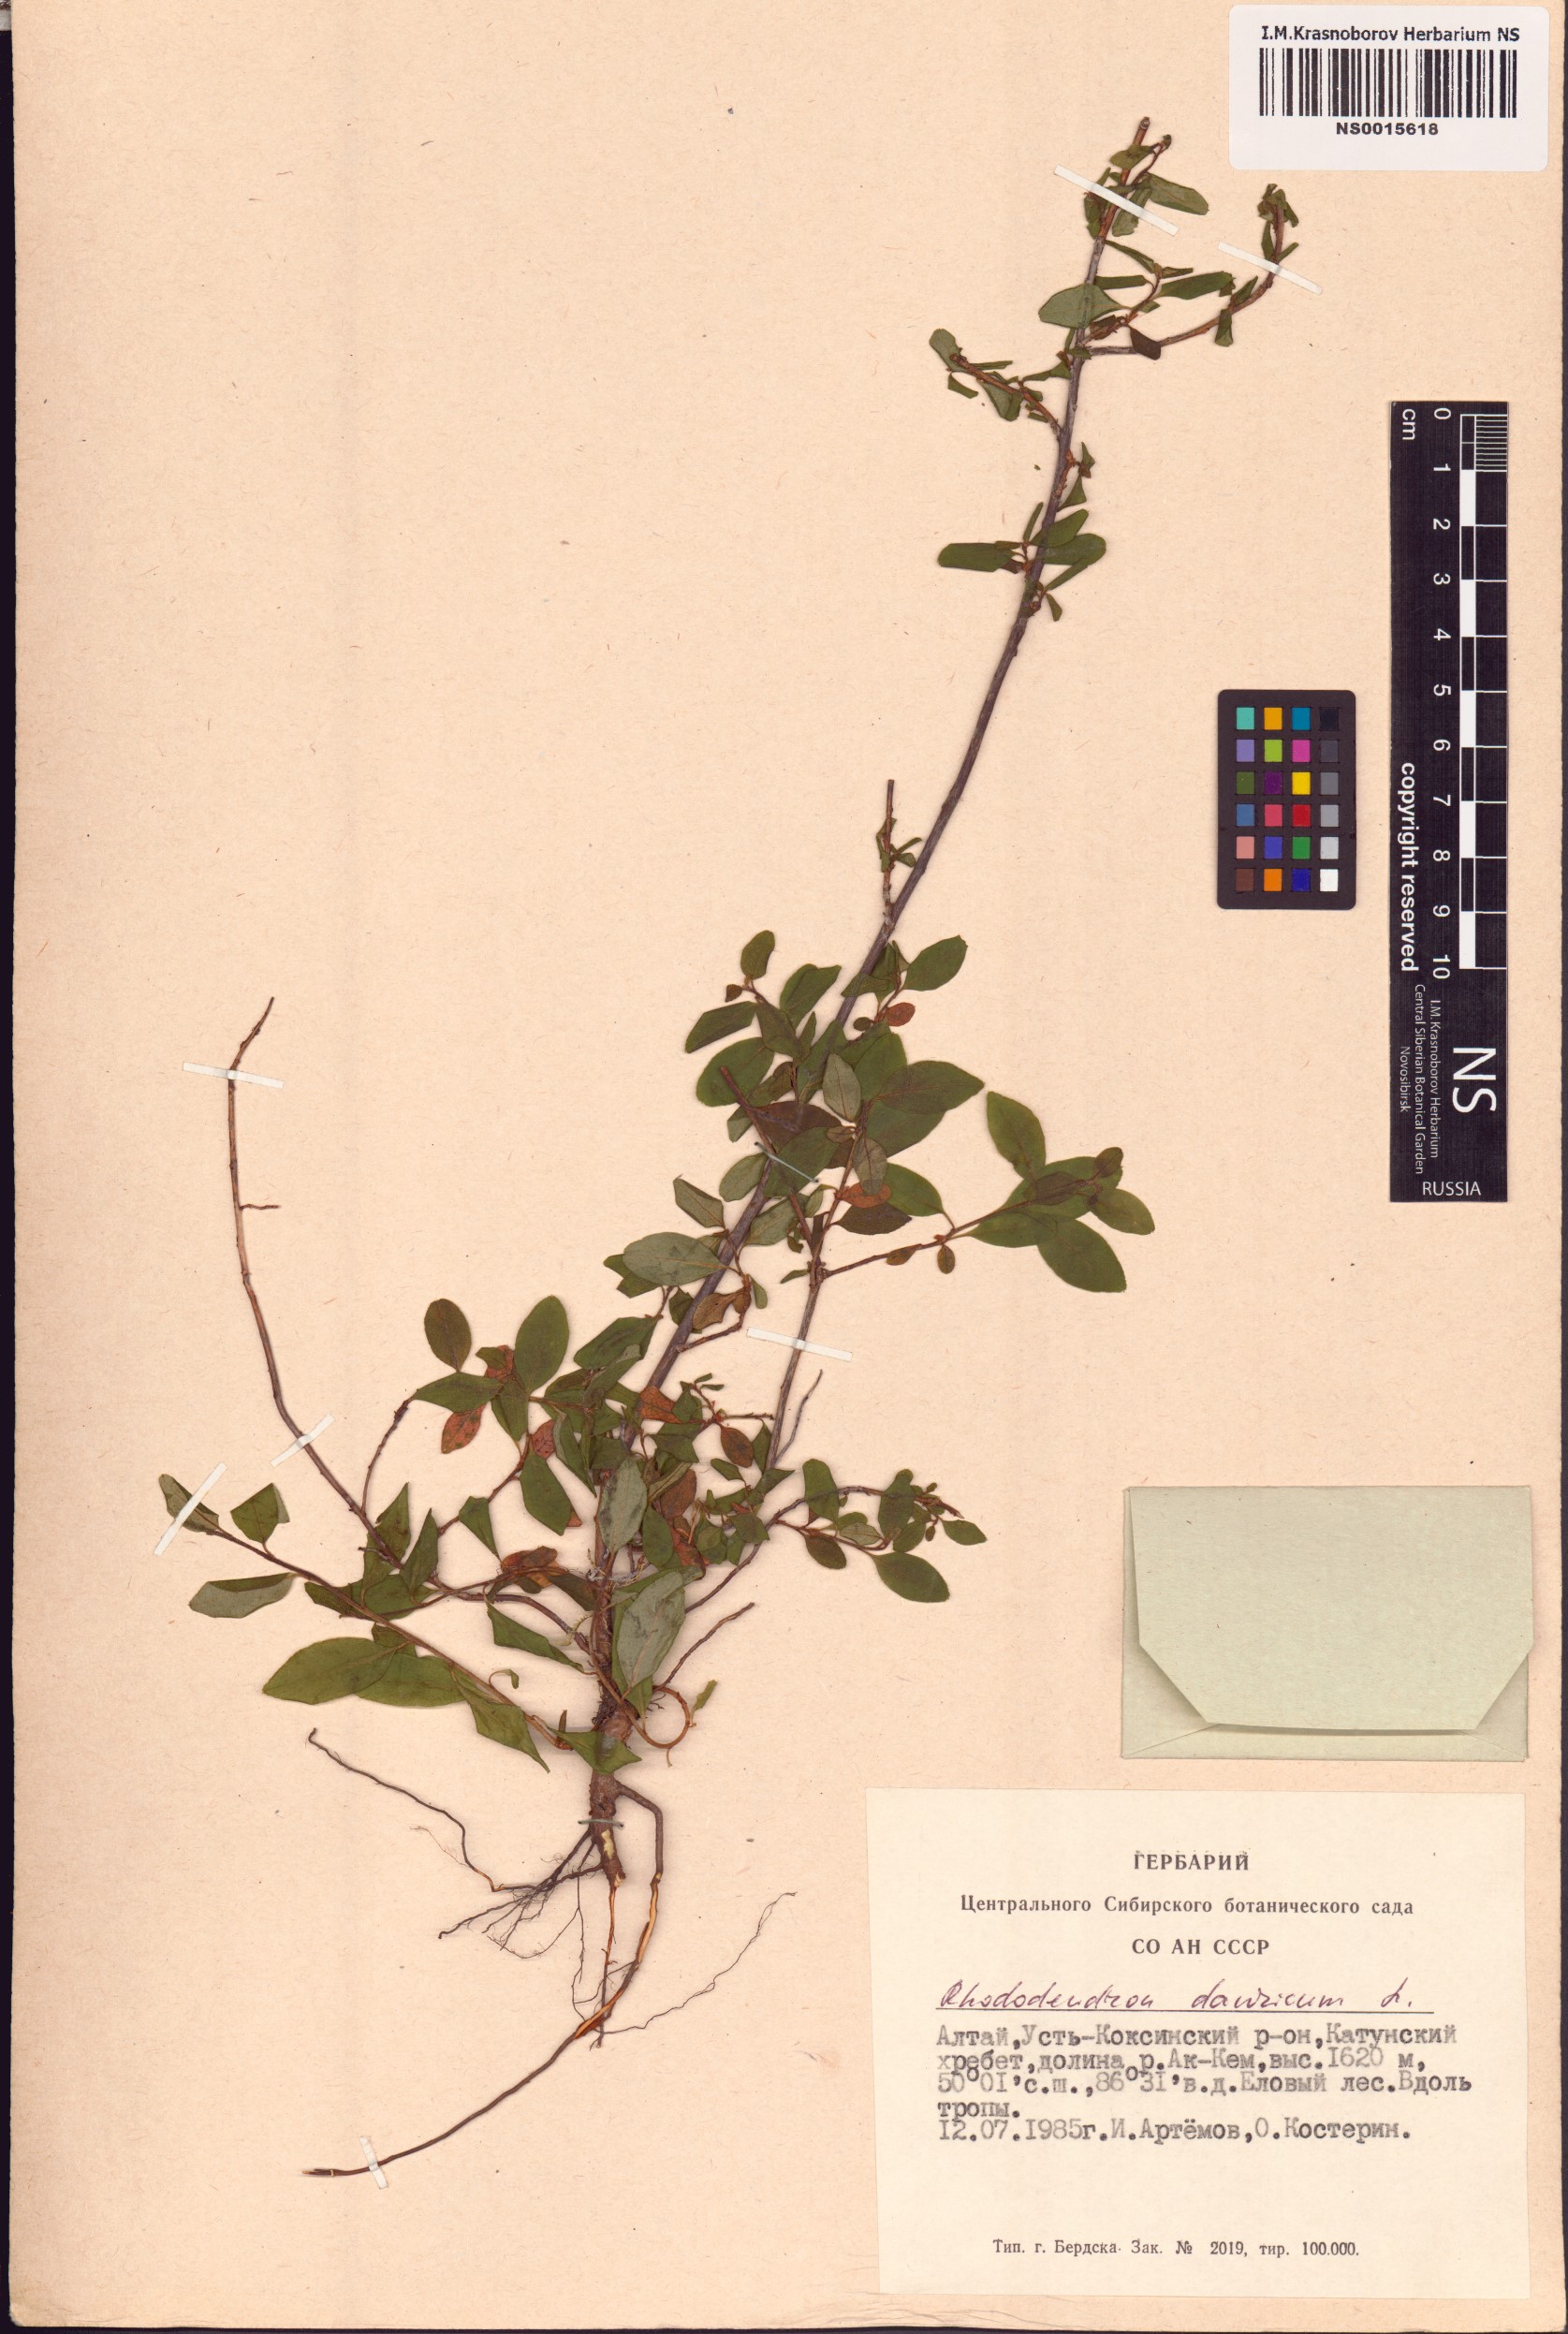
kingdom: Plantae
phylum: Tracheophyta
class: Magnoliopsida
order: Ericales
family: Ericaceae
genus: Rhododendron
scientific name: Rhododendron dauricum
